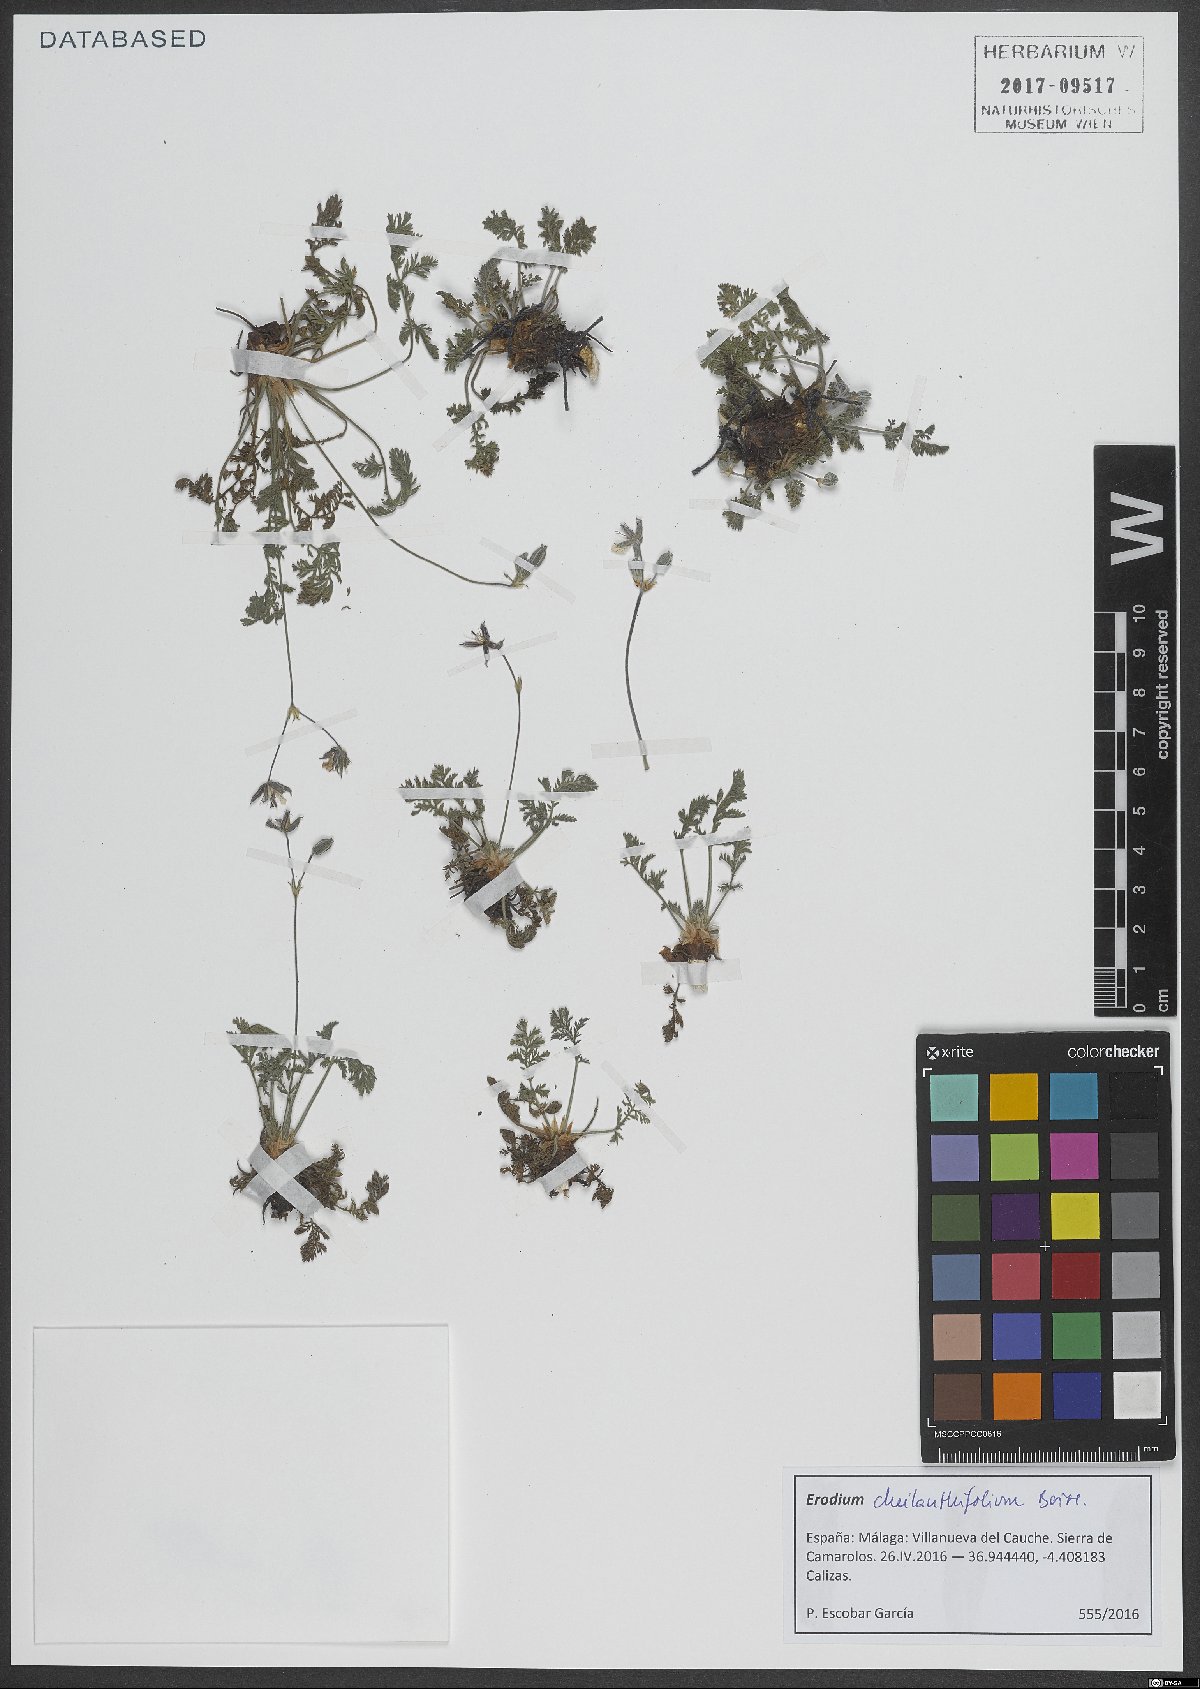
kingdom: Plantae
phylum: Tracheophyta
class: Magnoliopsida
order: Geraniales
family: Geraniaceae
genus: Erodium
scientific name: Erodium cheilanthifolium
